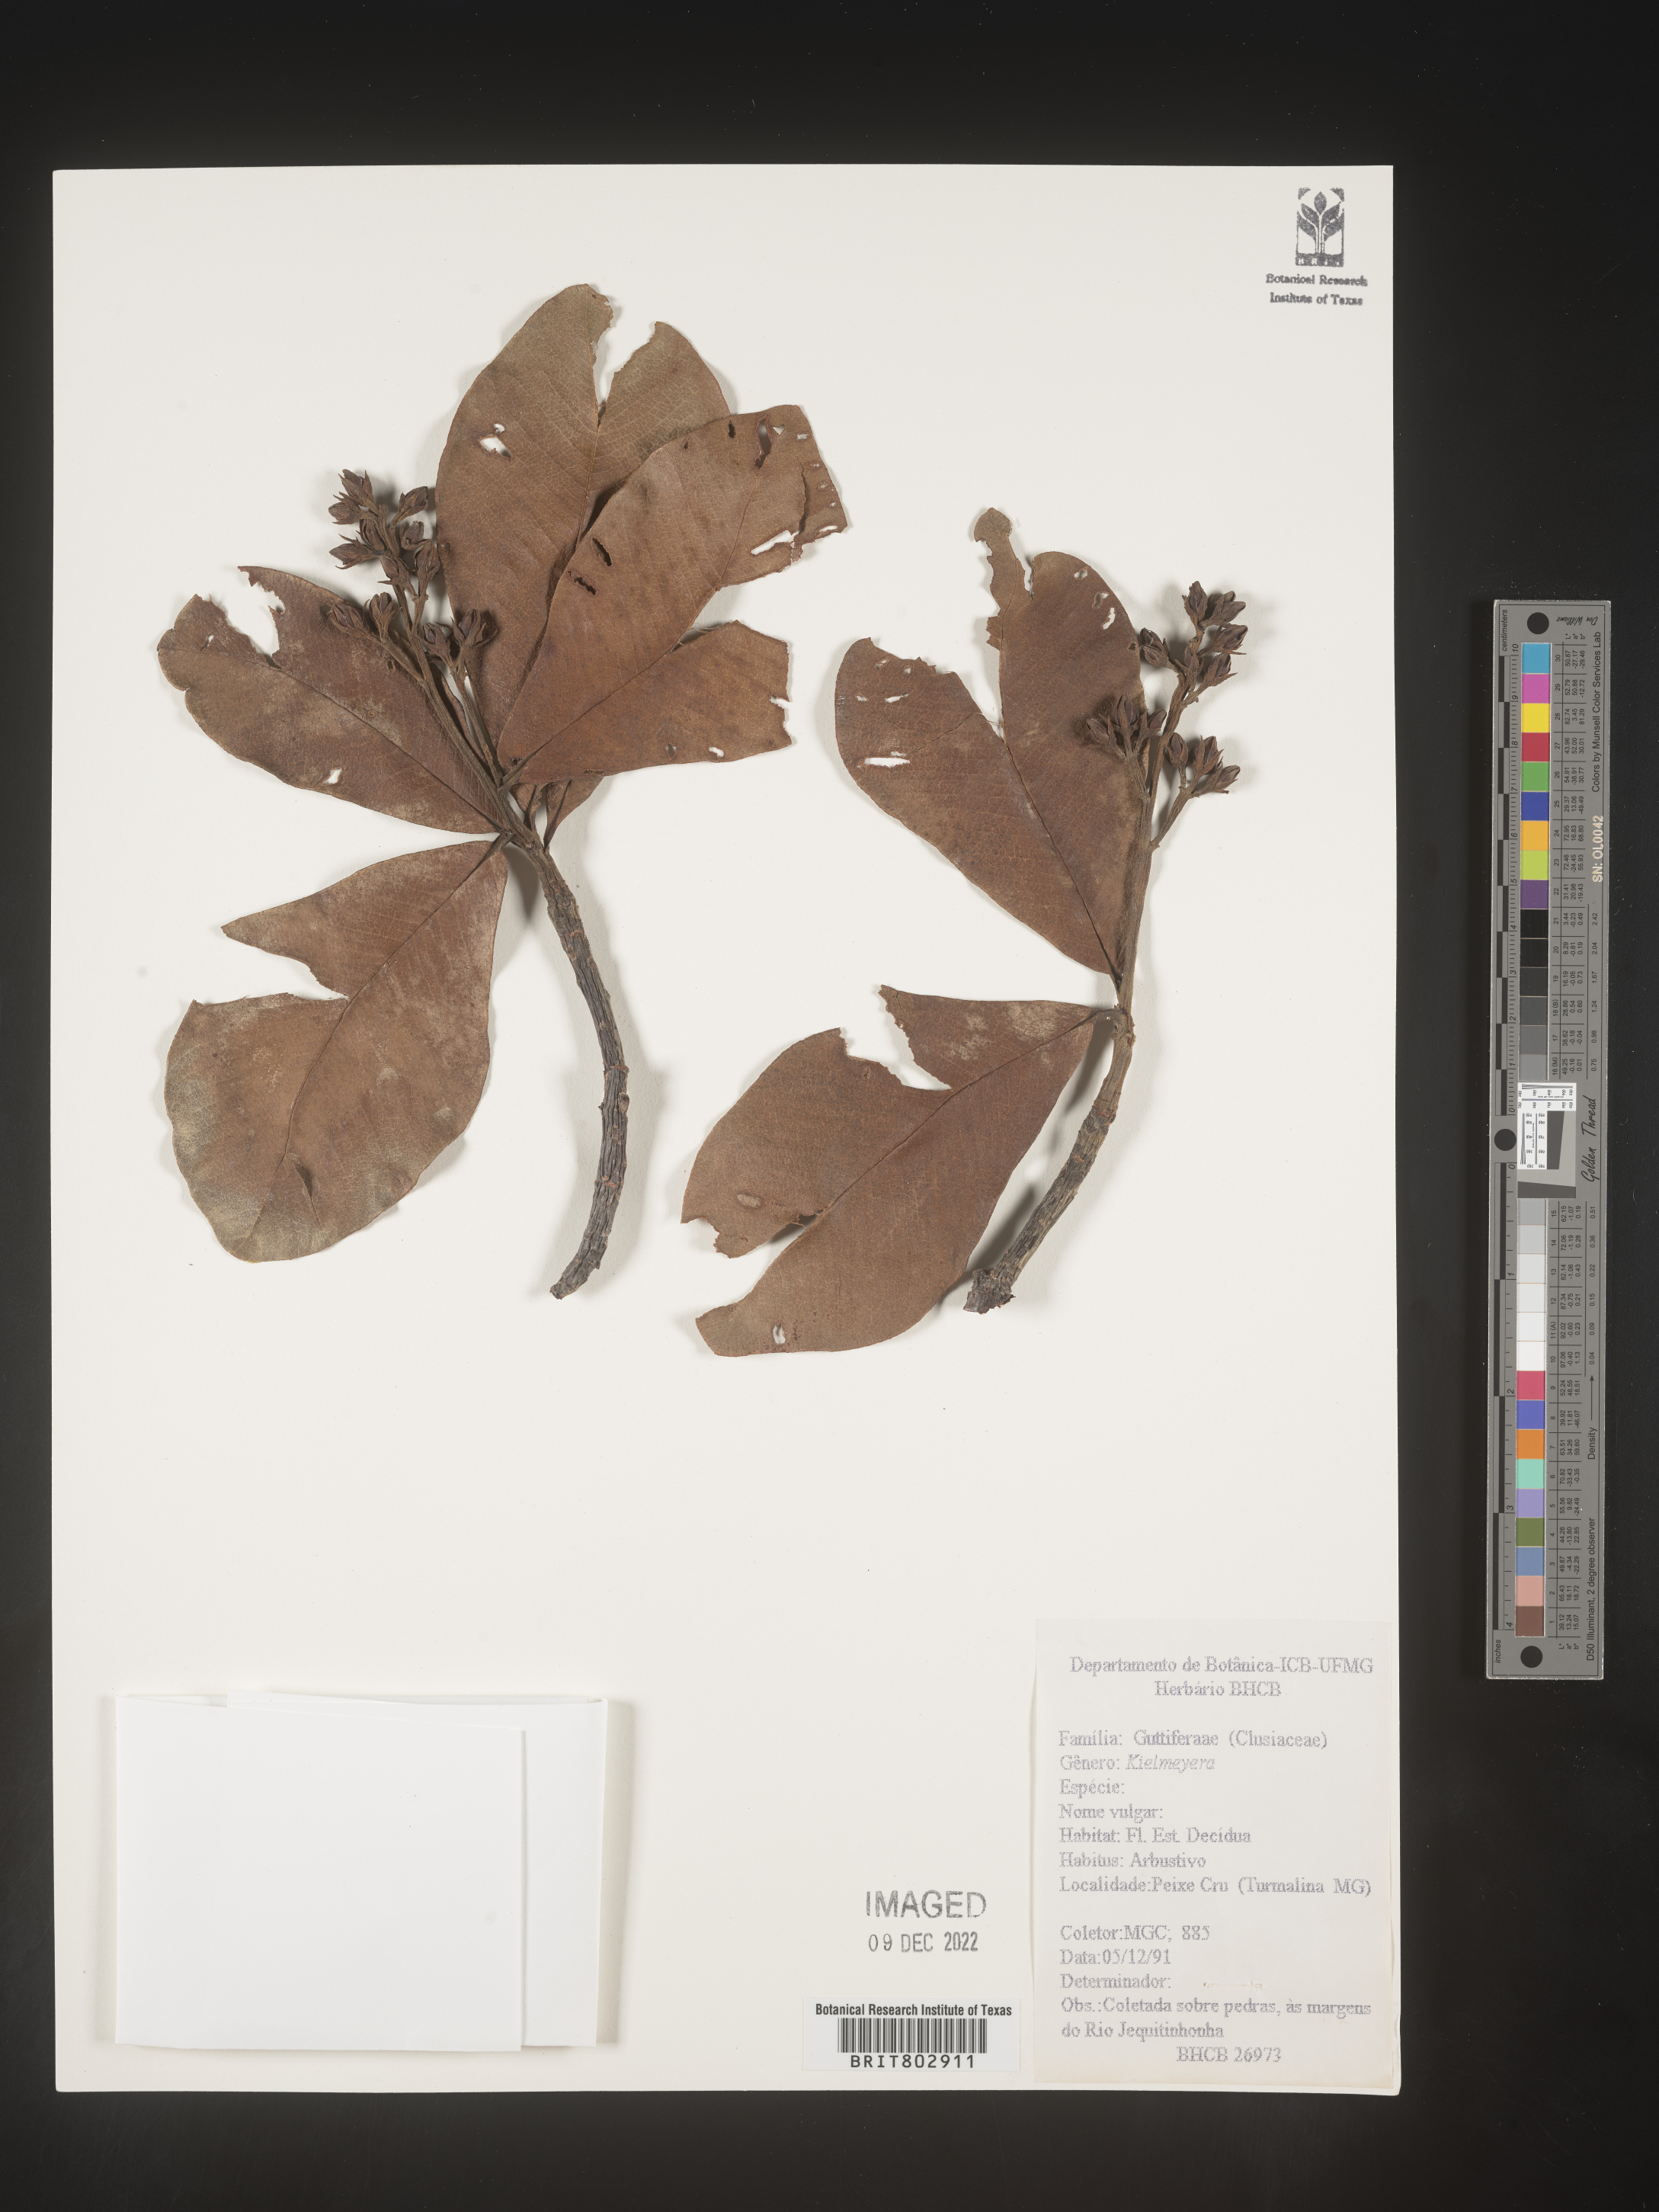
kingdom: Plantae
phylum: Tracheophyta
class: Magnoliopsida
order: Malpighiales
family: Calophyllaceae
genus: Kielmeyera
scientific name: Kielmeyera
